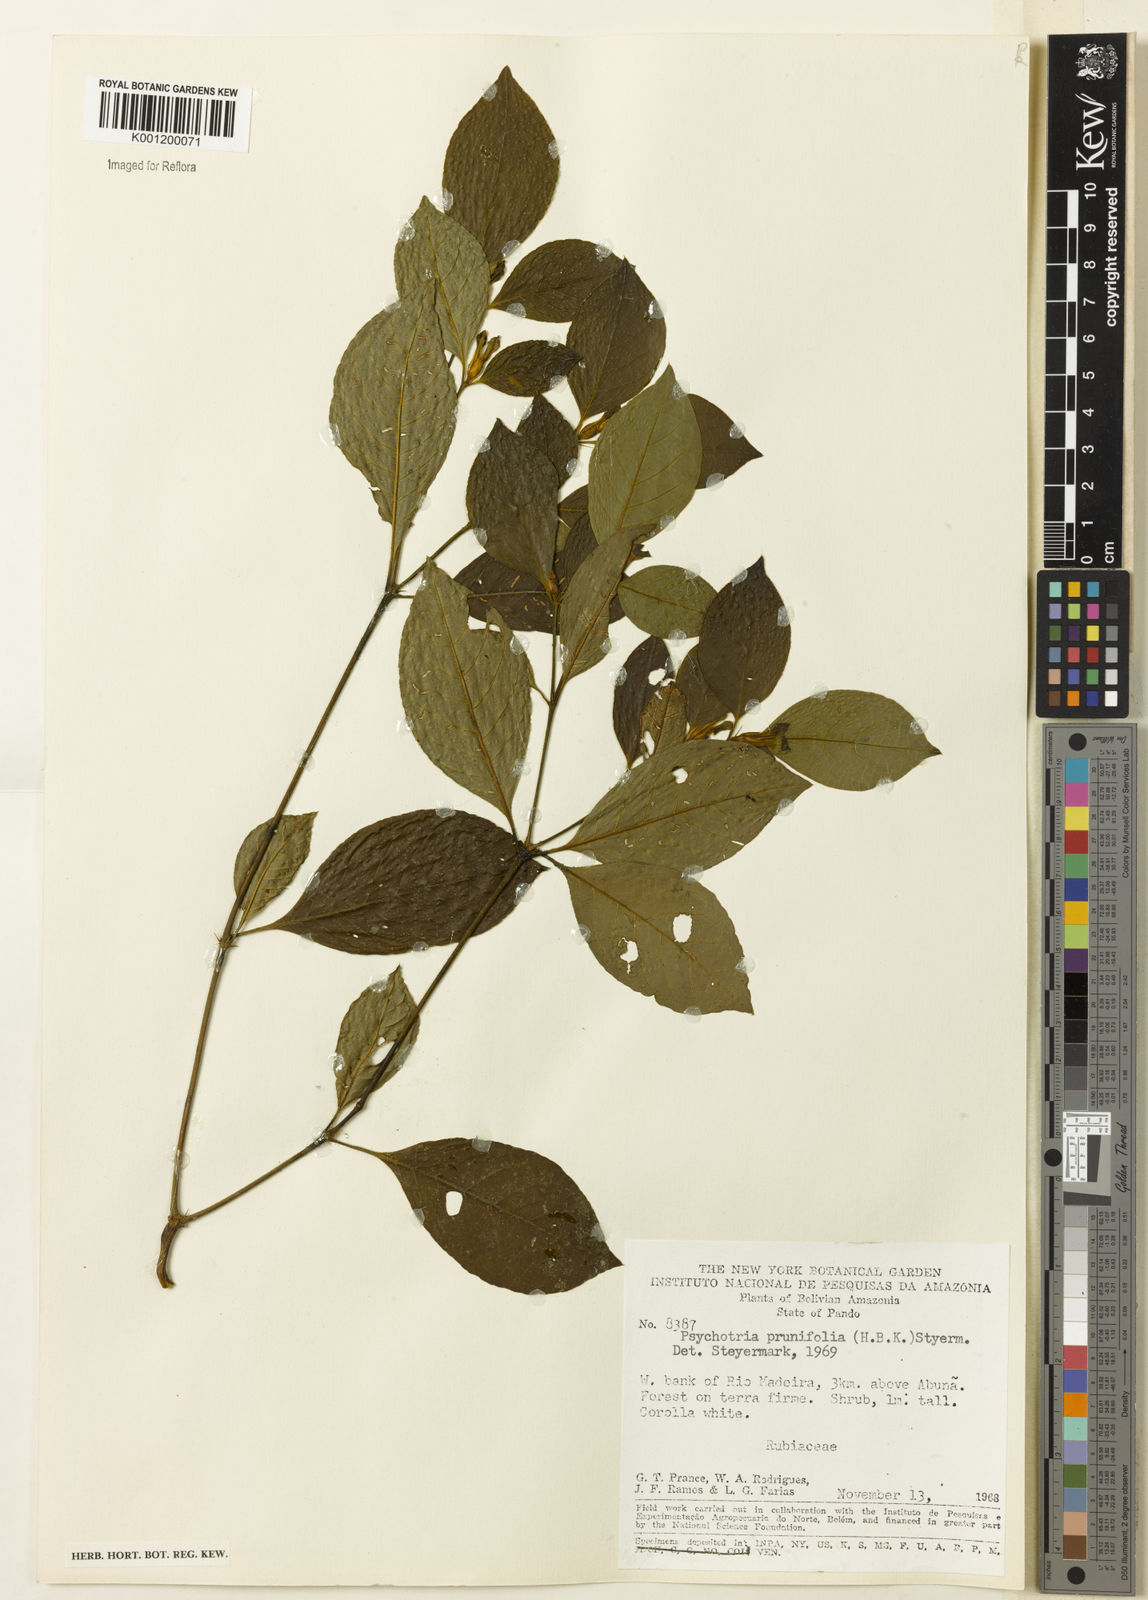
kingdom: Plantae
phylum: Tracheophyta
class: Magnoliopsida
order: Gentianales
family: Rubiaceae
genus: Palicourea
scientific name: Palicourea prunifolia
